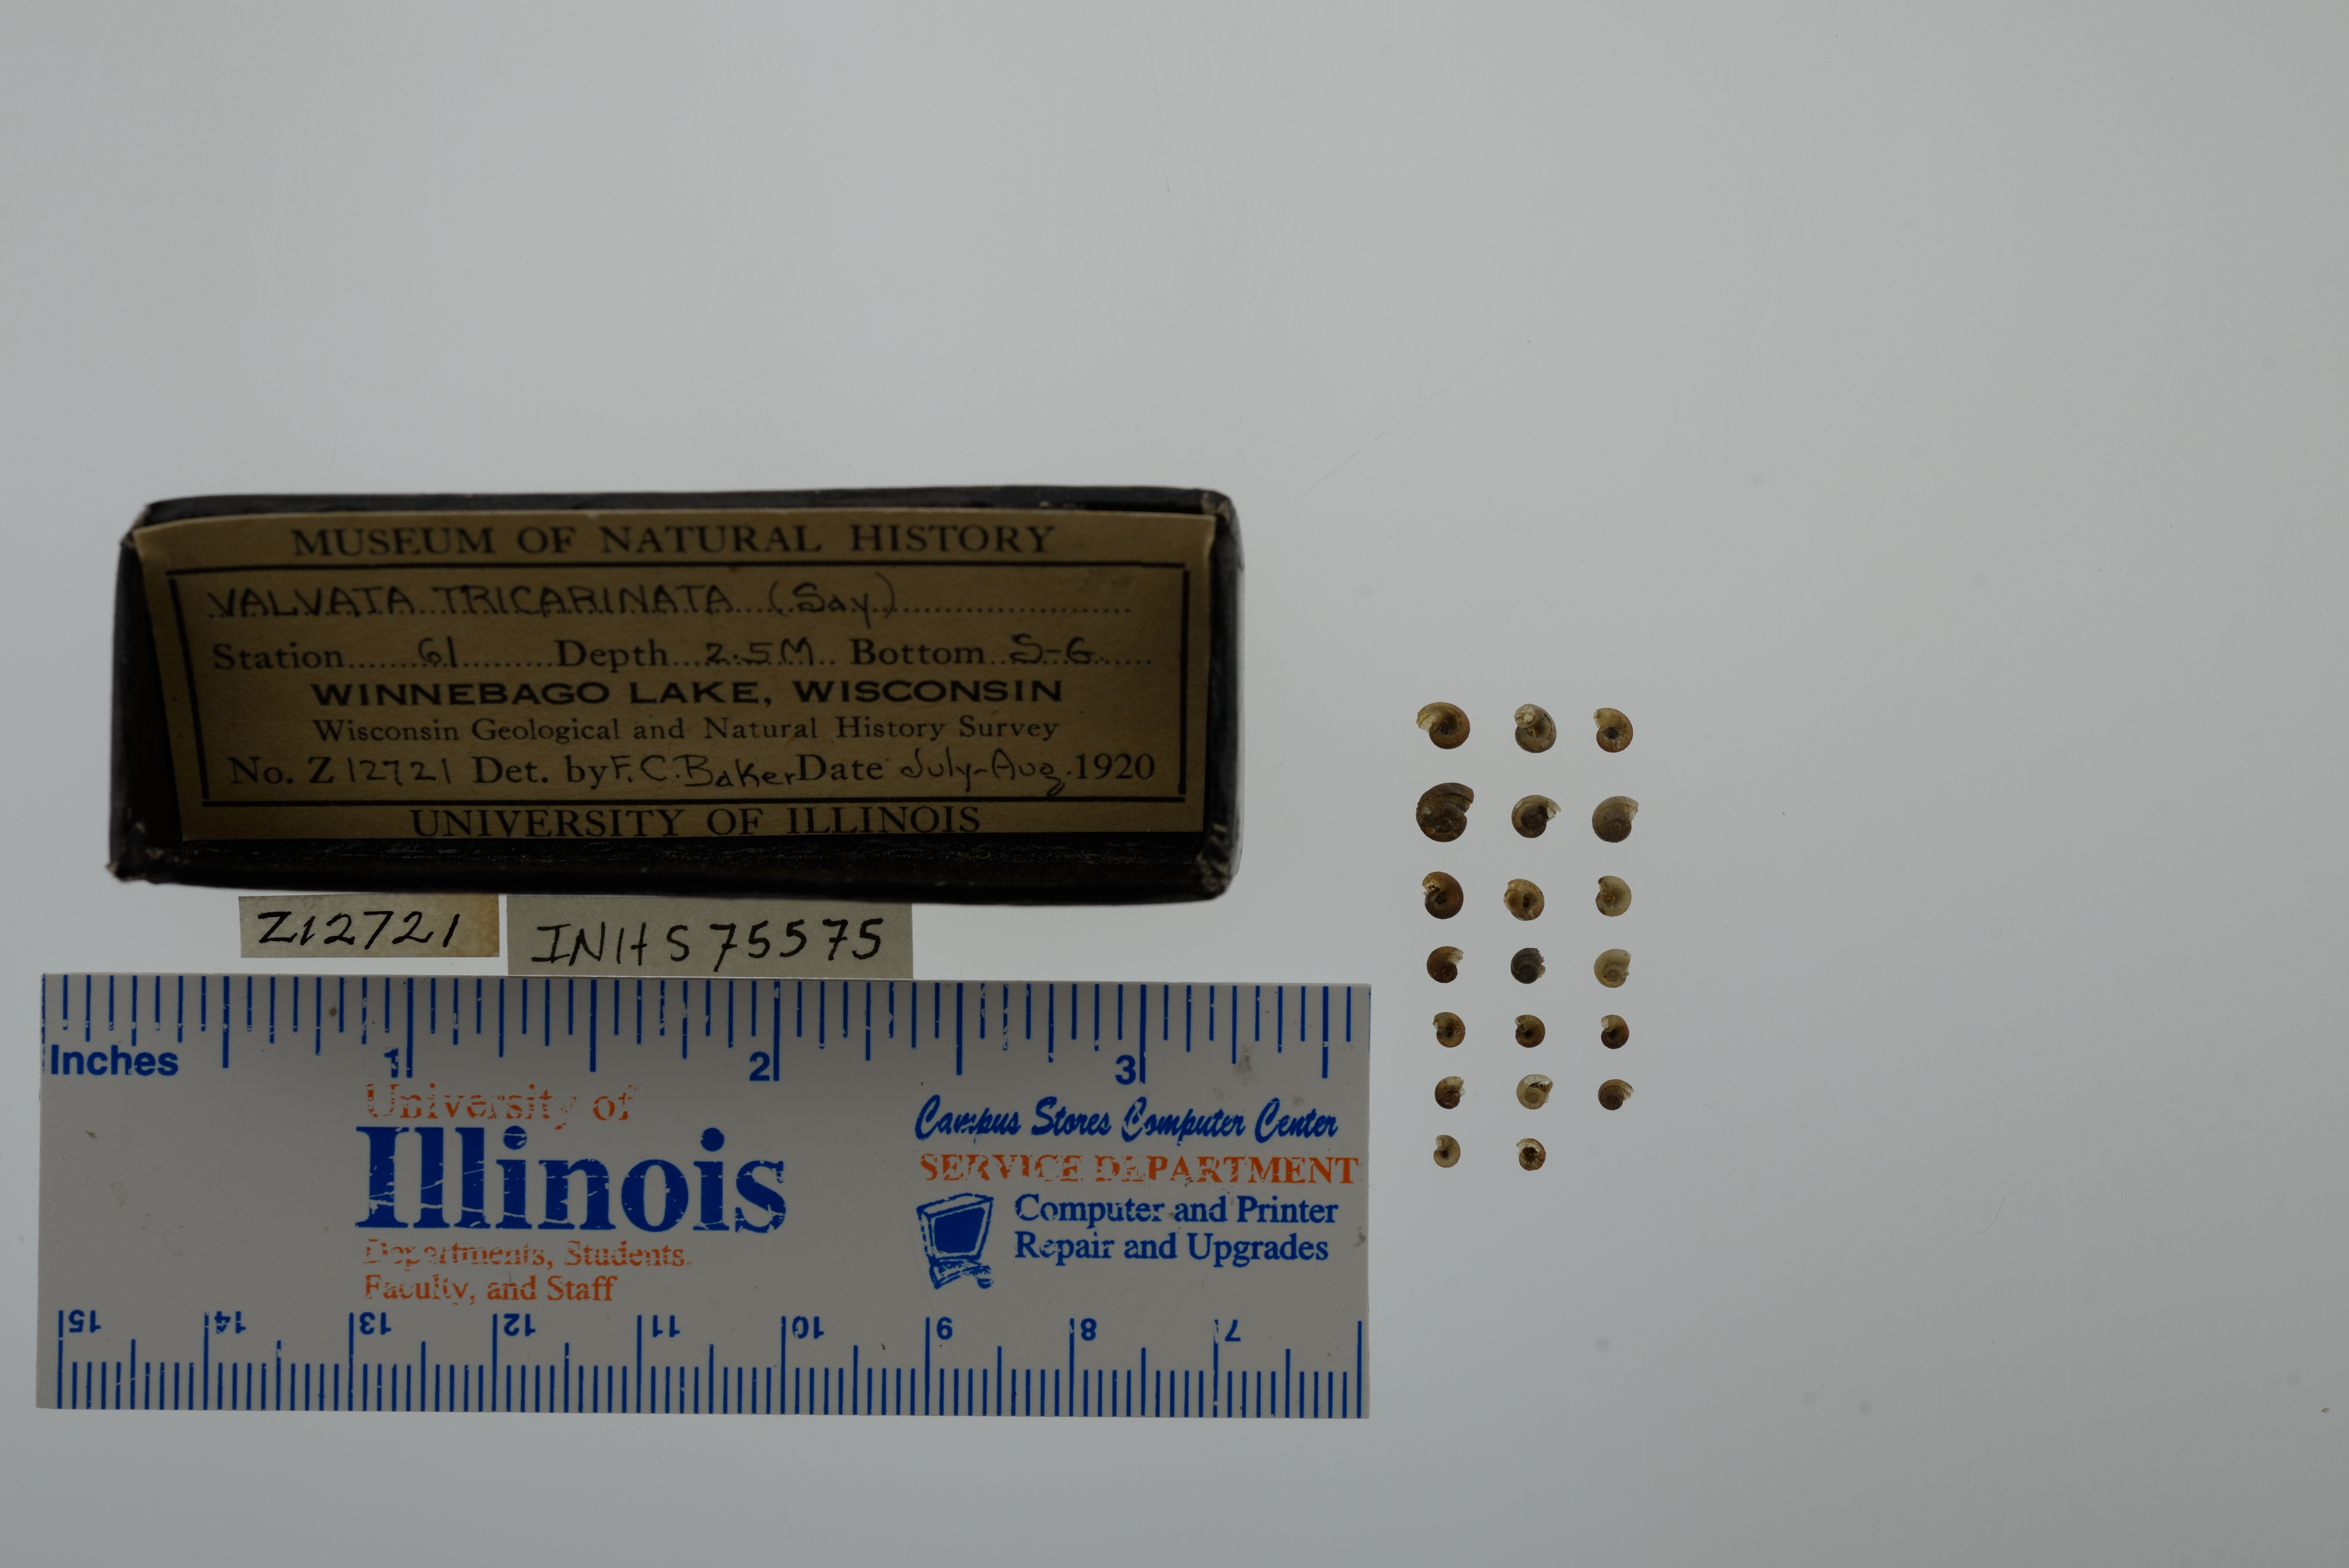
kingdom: Animalia
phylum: Mollusca
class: Gastropoda
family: Valvatidae
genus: Valvata
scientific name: Valvata tricarinata
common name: Three-ridge valvata
